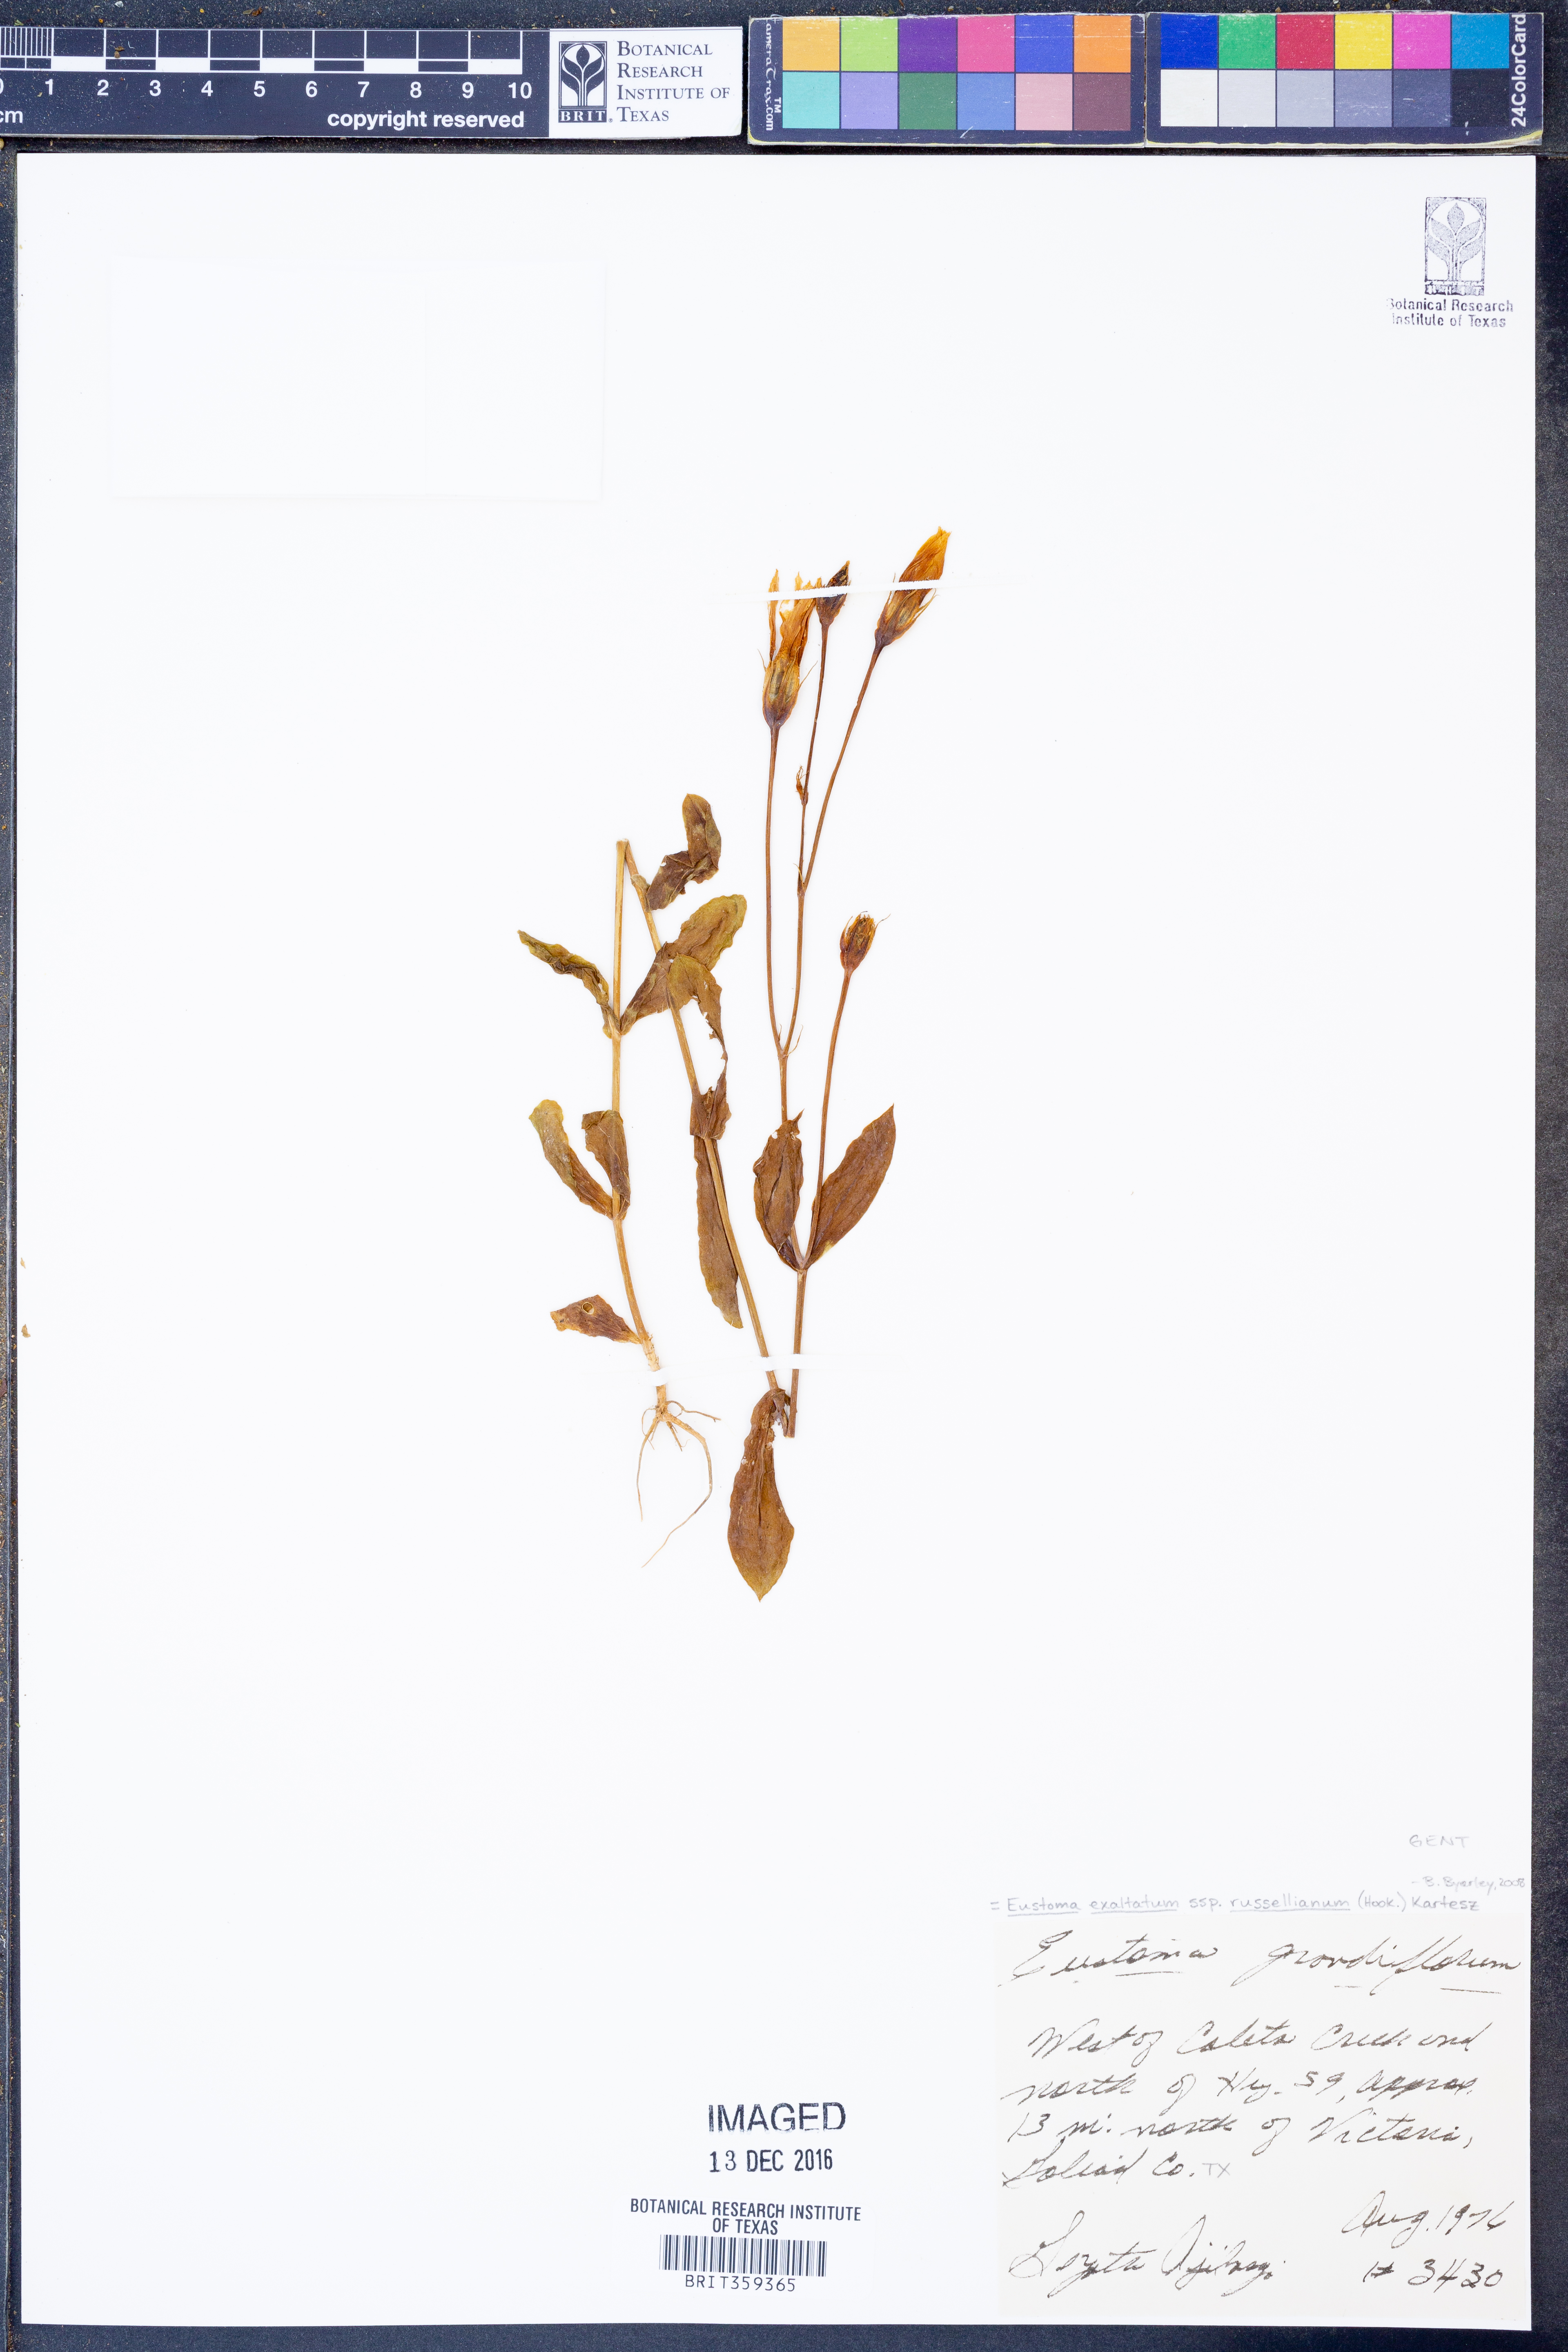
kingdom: Plantae
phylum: Tracheophyta
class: Magnoliopsida
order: Gentianales
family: Gentianaceae
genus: Eustoma
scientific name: Eustoma russellianum
